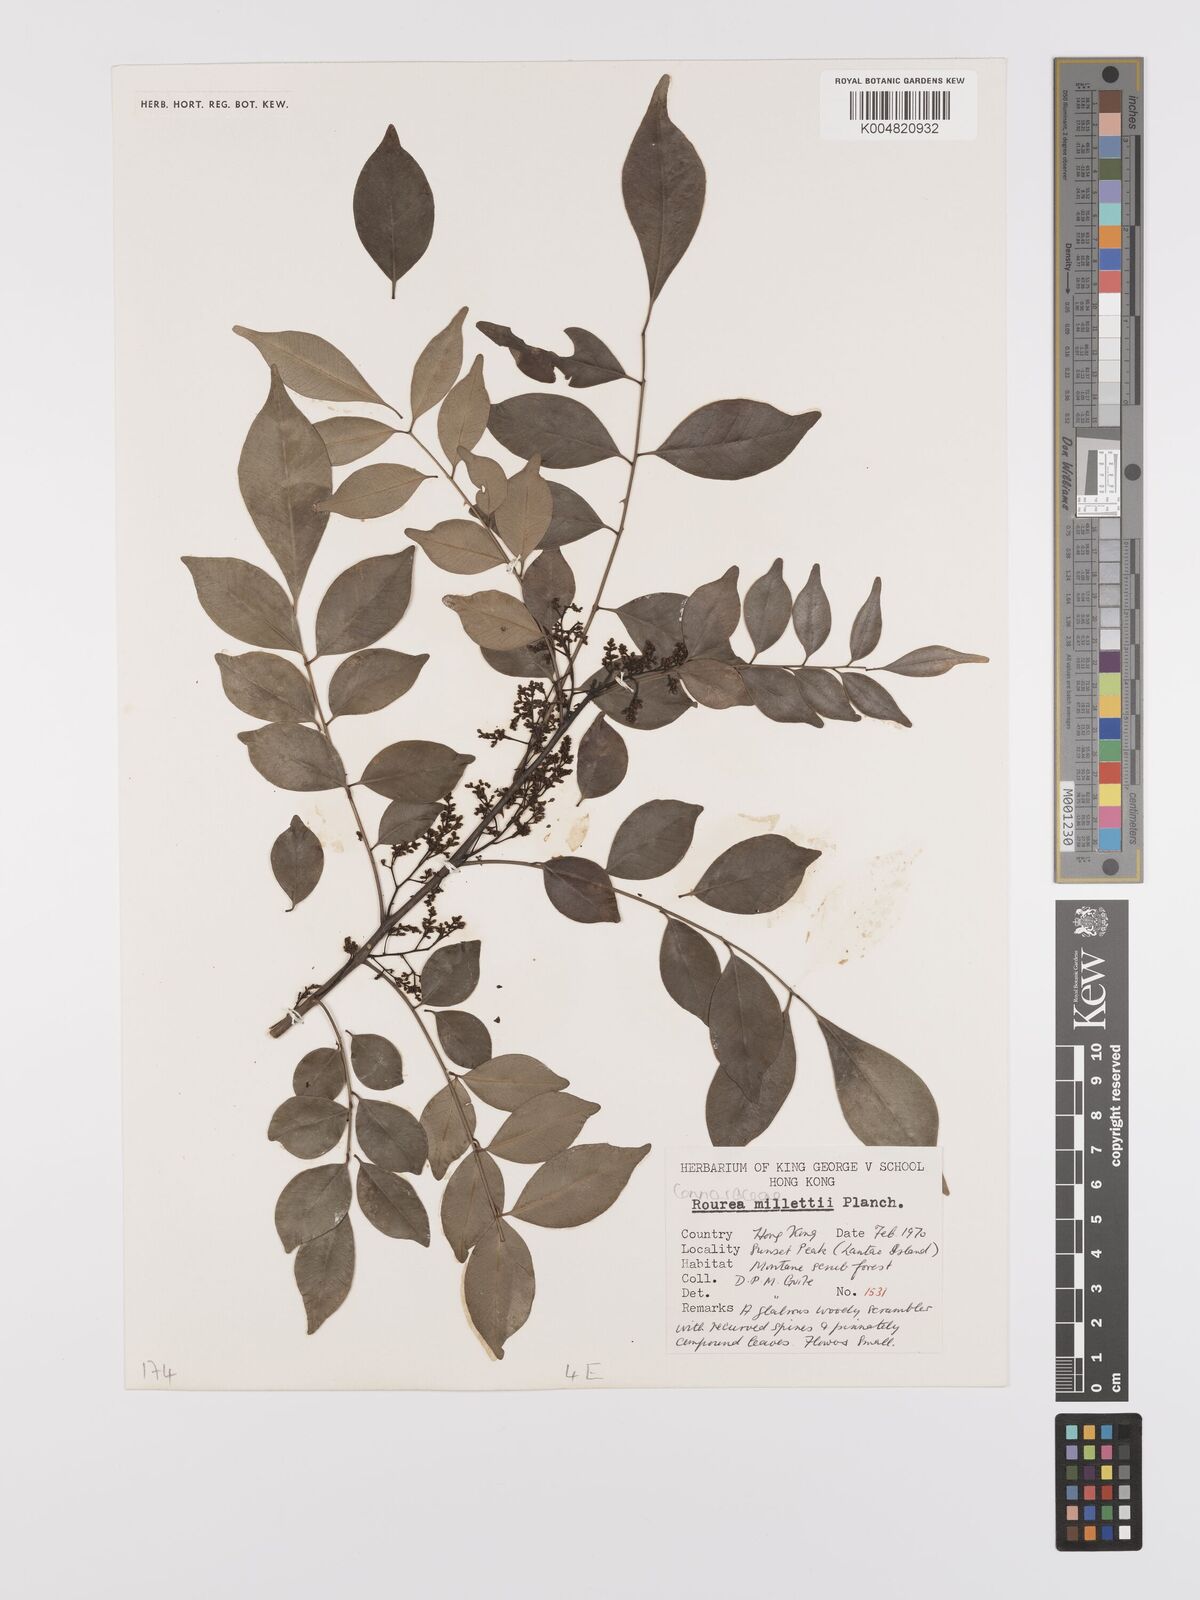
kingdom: Plantae
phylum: Tracheophyta
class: Magnoliopsida
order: Oxalidales
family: Connaraceae
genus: Rourea
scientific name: Rourea
